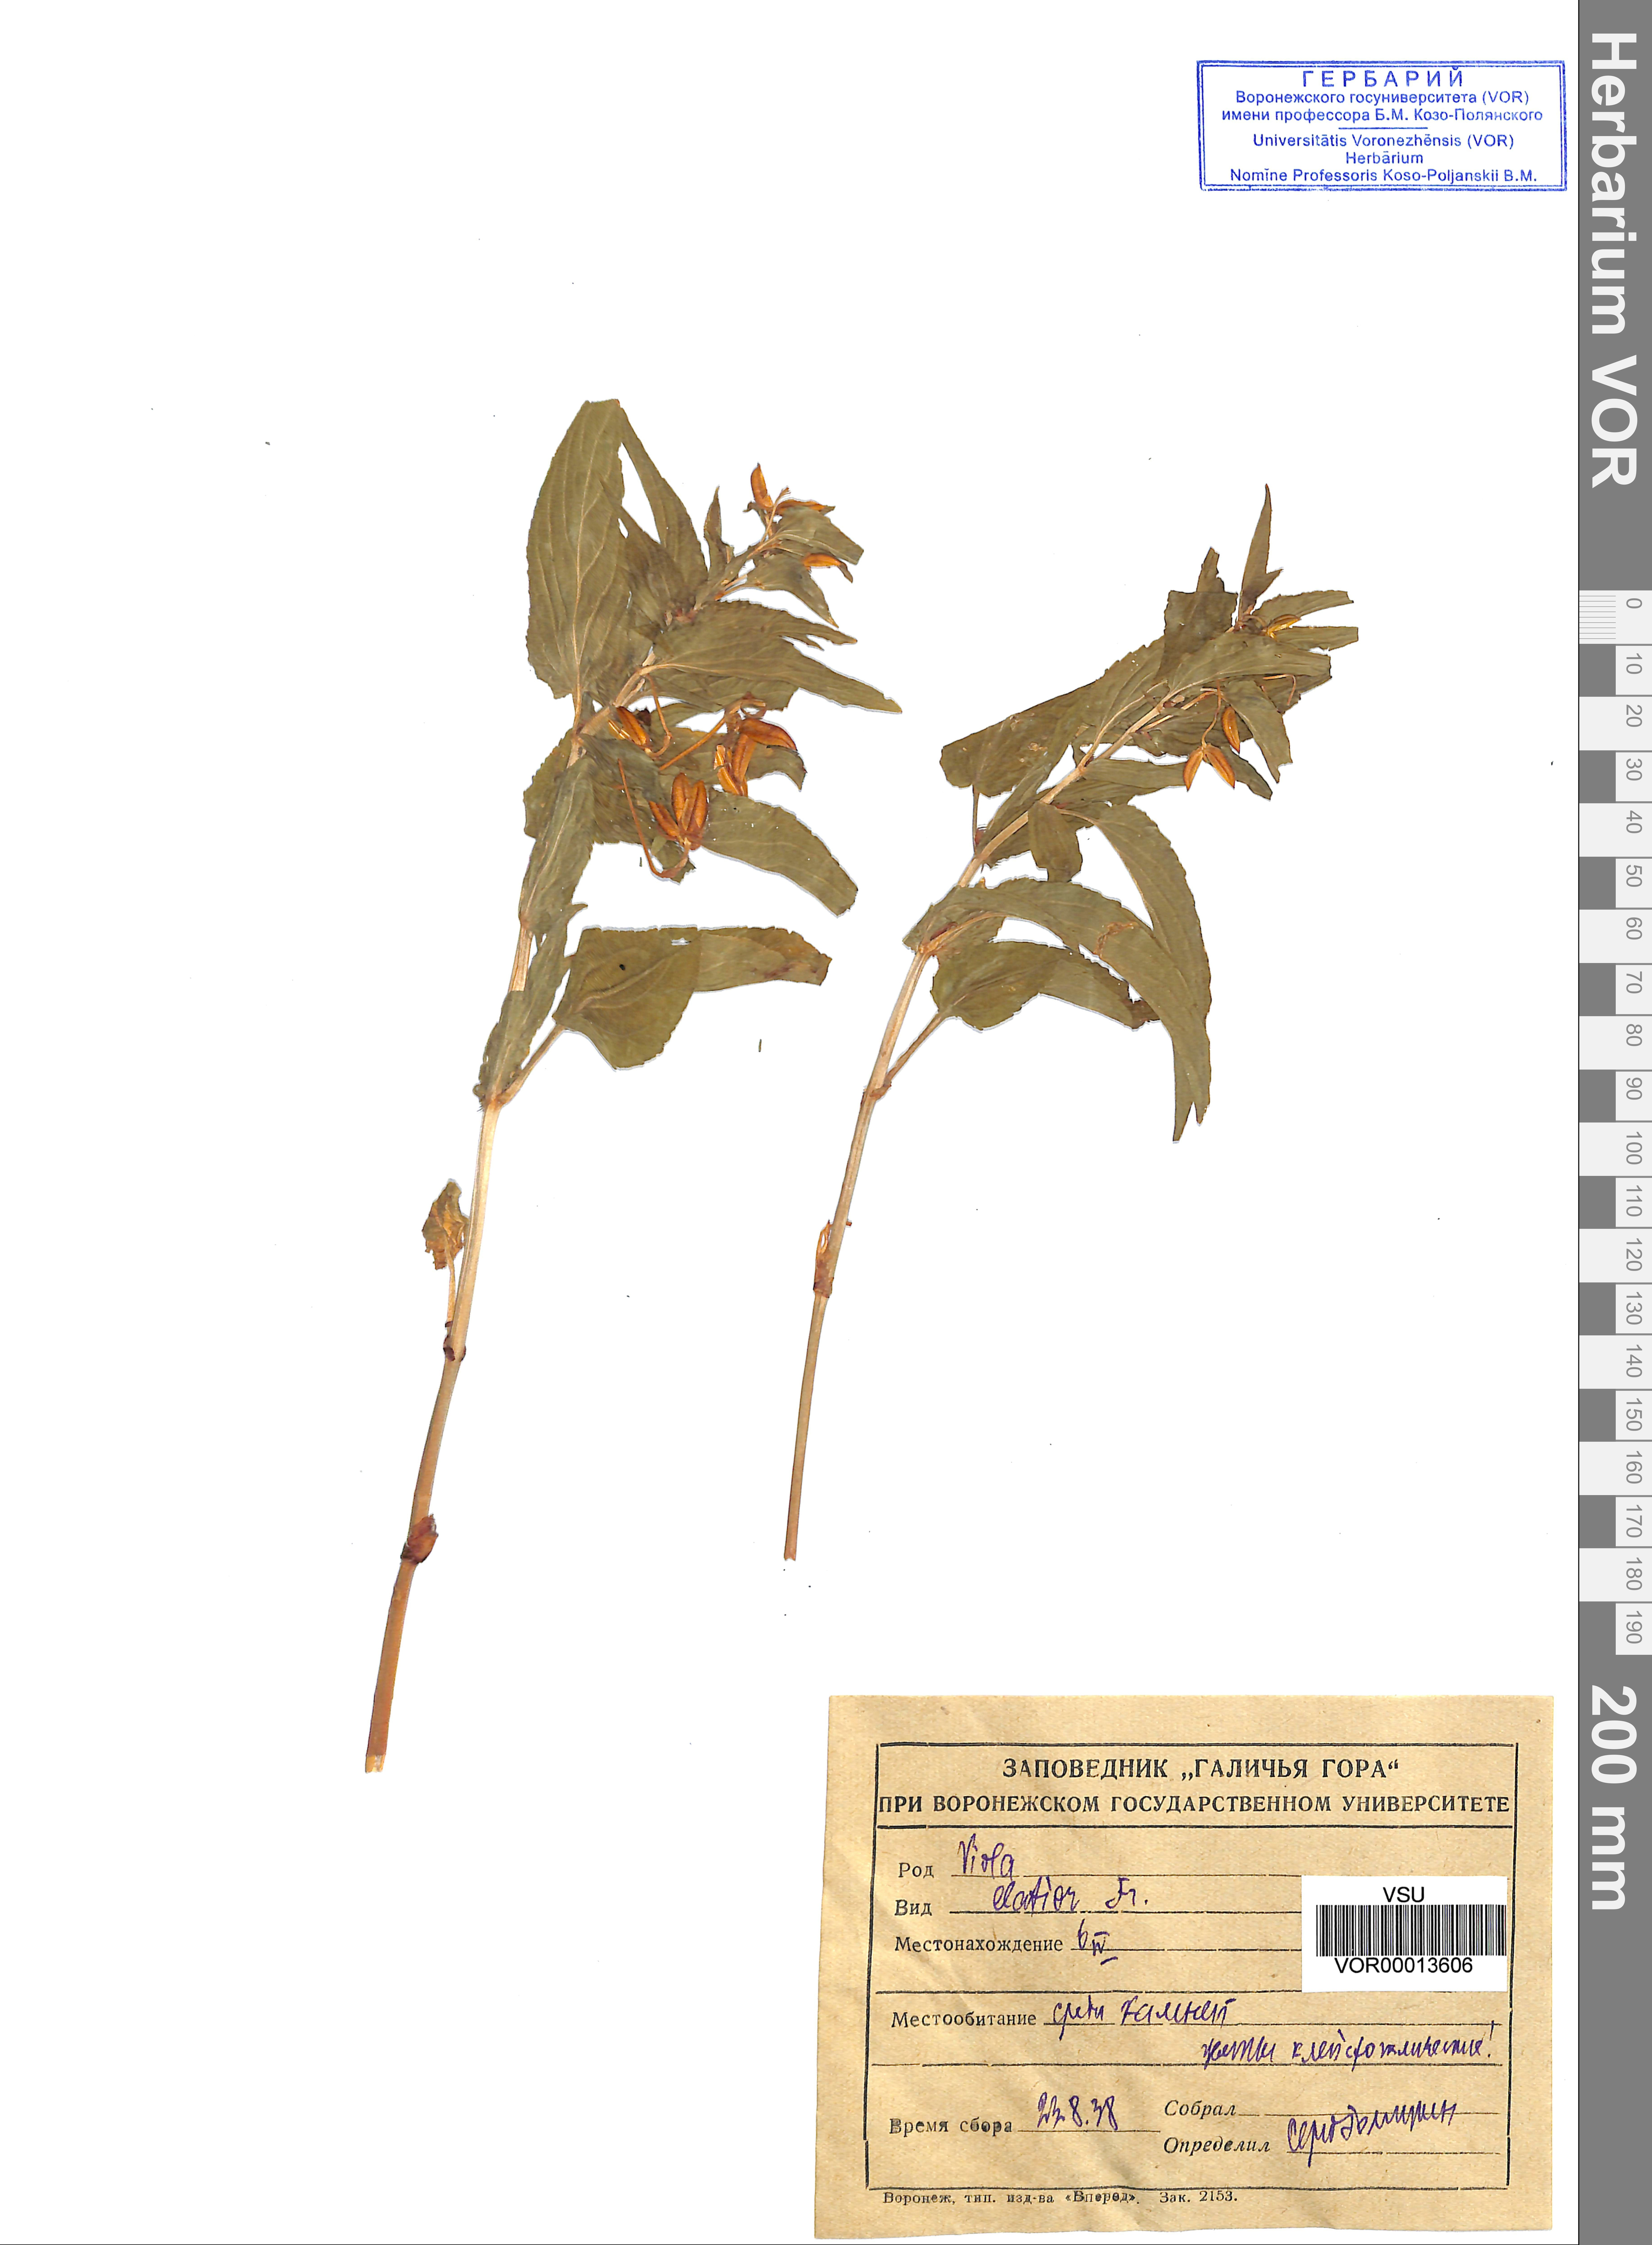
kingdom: Plantae
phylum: Tracheophyta
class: Magnoliopsida
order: Malpighiales
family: Violaceae
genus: Viola
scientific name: Viola elatior
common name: Tall violet
